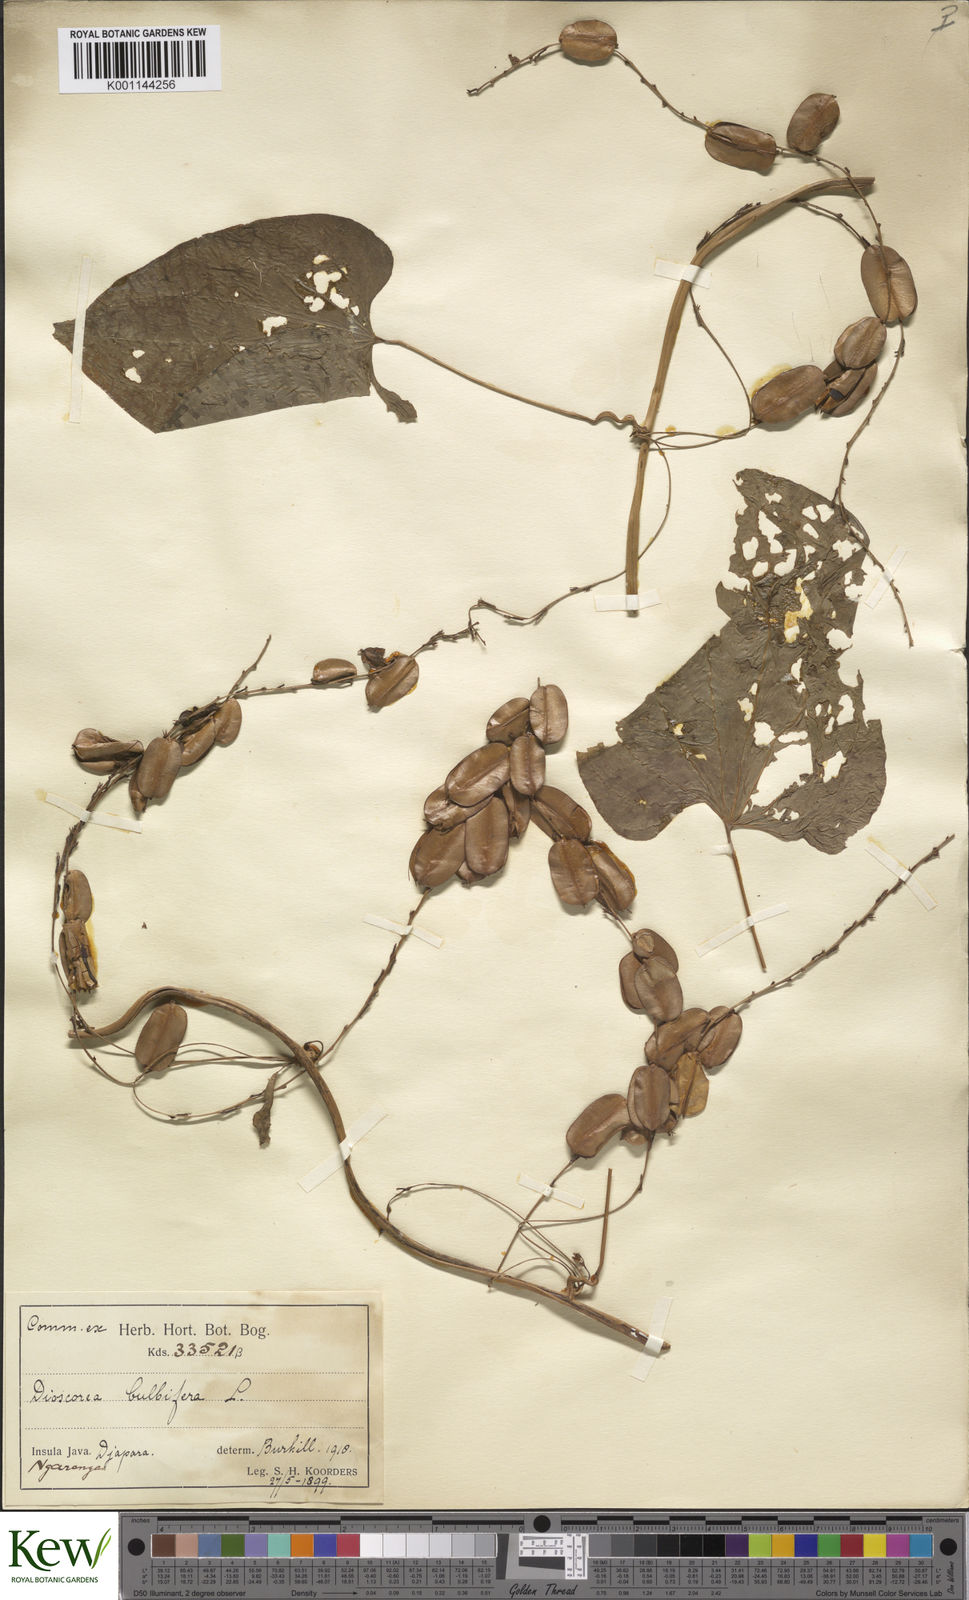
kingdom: Plantae
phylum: Tracheophyta
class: Liliopsida
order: Dioscoreales
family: Dioscoreaceae
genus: Dioscorea
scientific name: Dioscorea bulbifera
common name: Air yam
